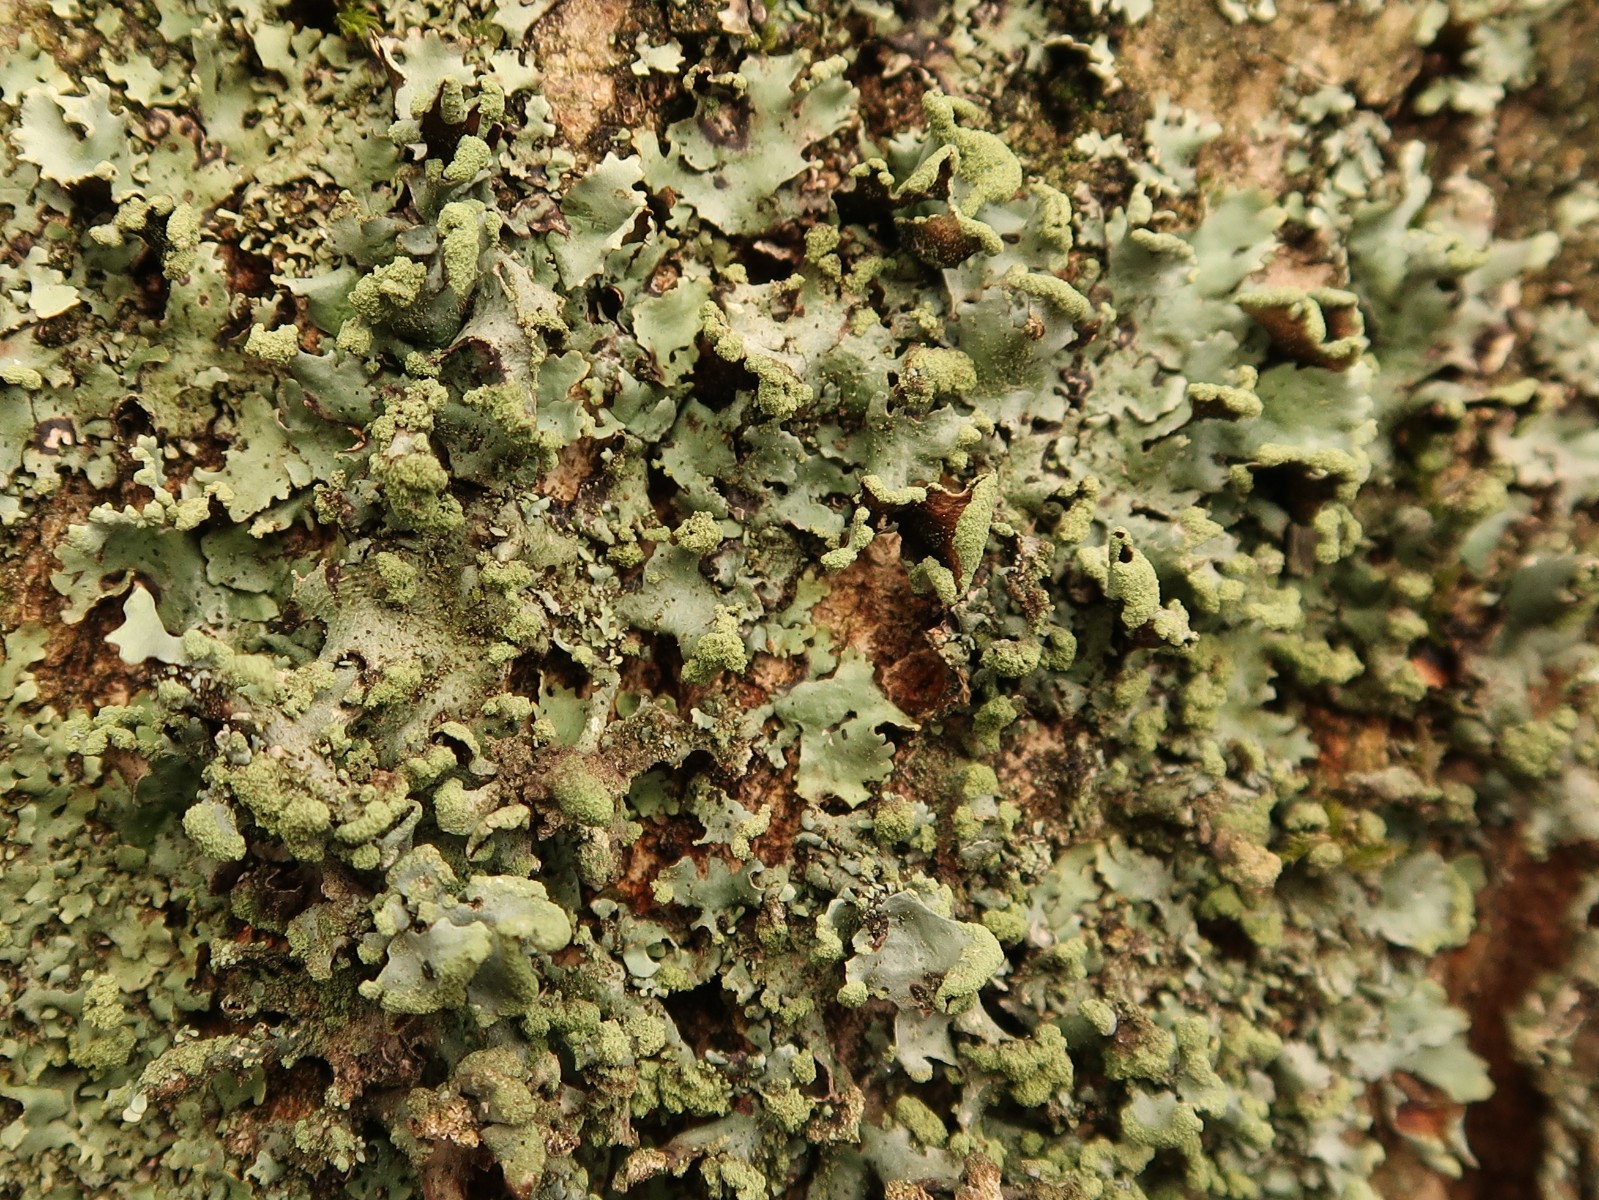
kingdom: Fungi
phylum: Ascomycota
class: Lecanoromycetes
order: Lecanorales
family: Parmeliaceae
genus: Hypotrachyna
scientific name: Hypotrachyna revoluta
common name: bleggrå skållav
